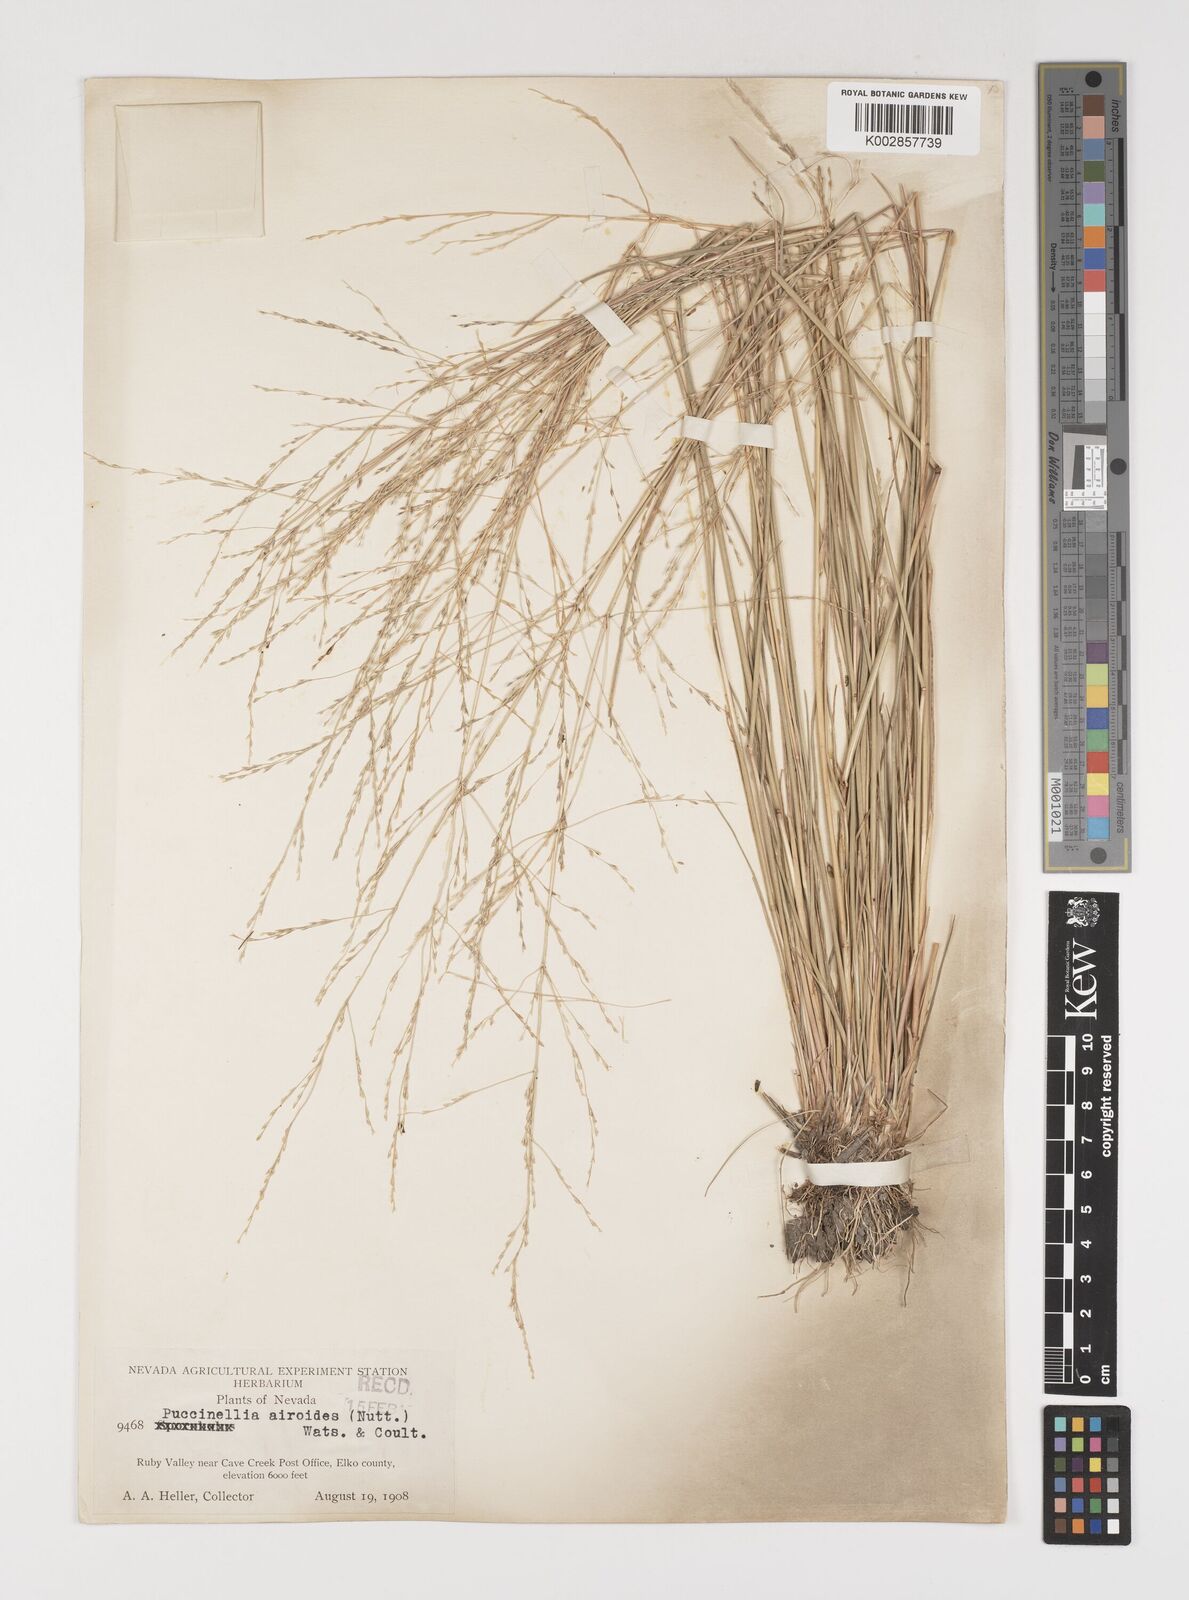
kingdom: Plantae
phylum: Tracheophyta
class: Liliopsida
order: Poales
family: Poaceae
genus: Puccinellia
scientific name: Puccinellia nuttalliana
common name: Nuttall's alkali grass
